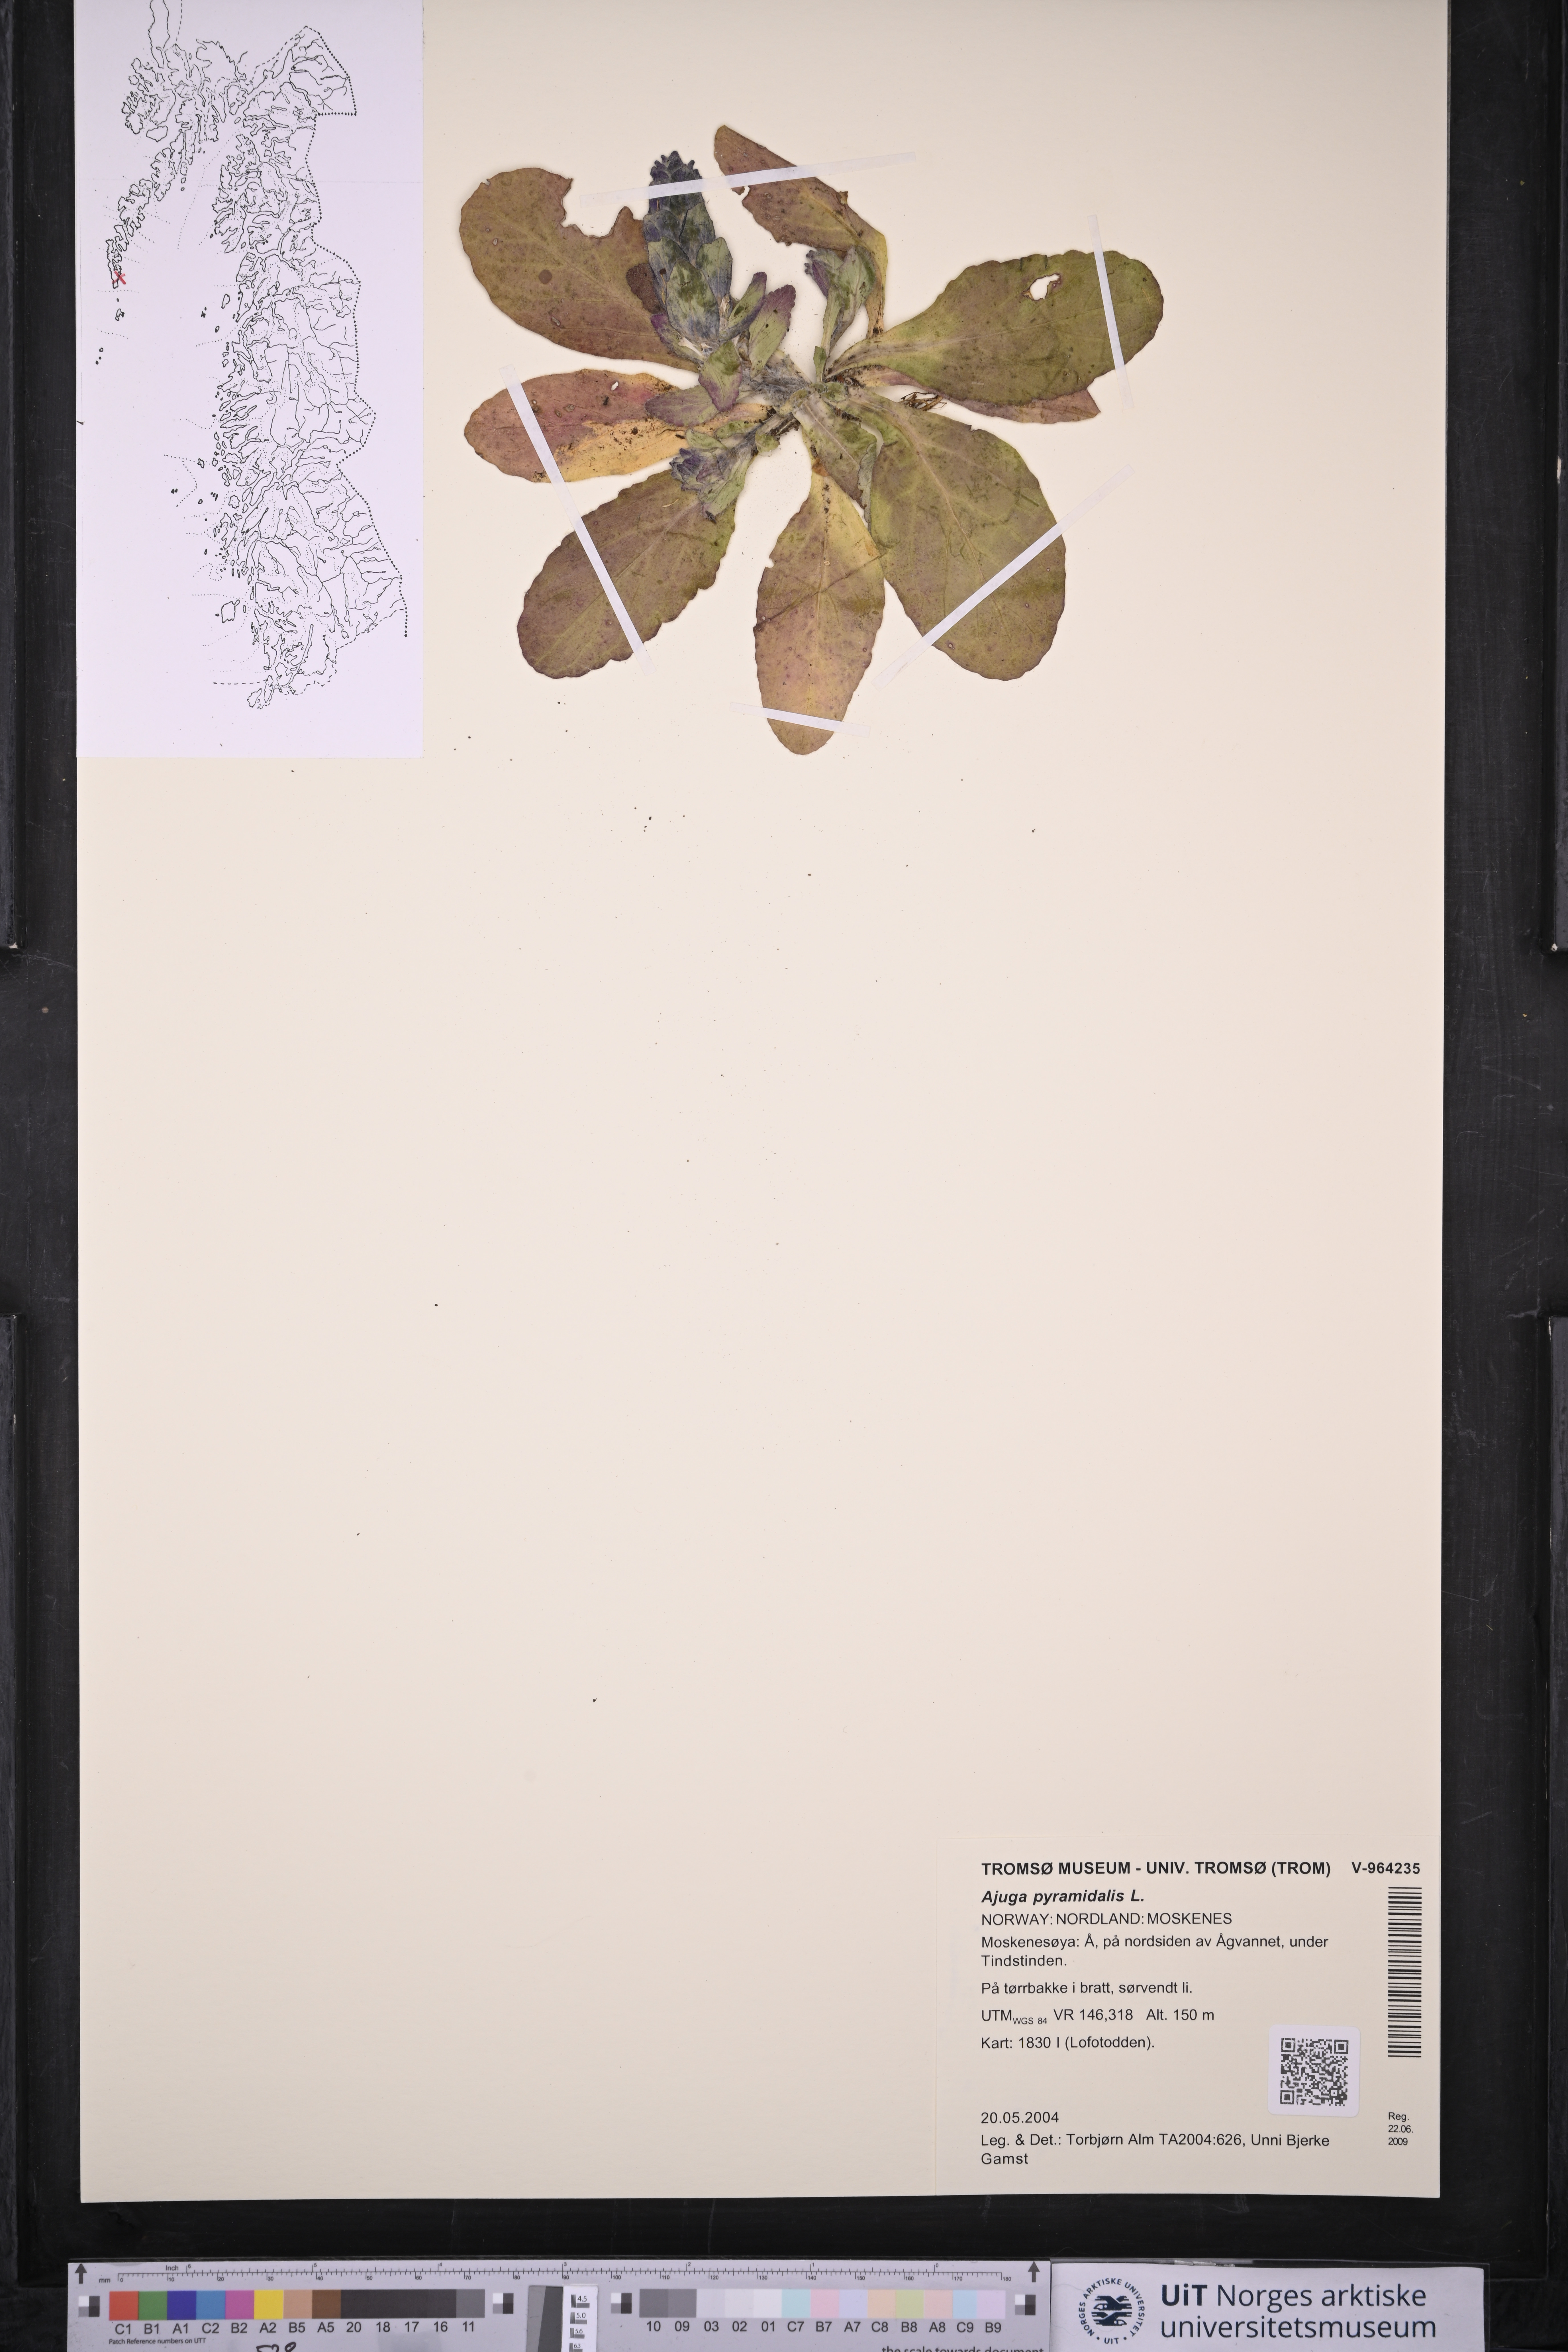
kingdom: Plantae
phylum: Tracheophyta
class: Magnoliopsida
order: Lamiales
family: Lamiaceae
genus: Ajuga
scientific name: Ajuga pyramidalis
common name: Pyramid bugle
